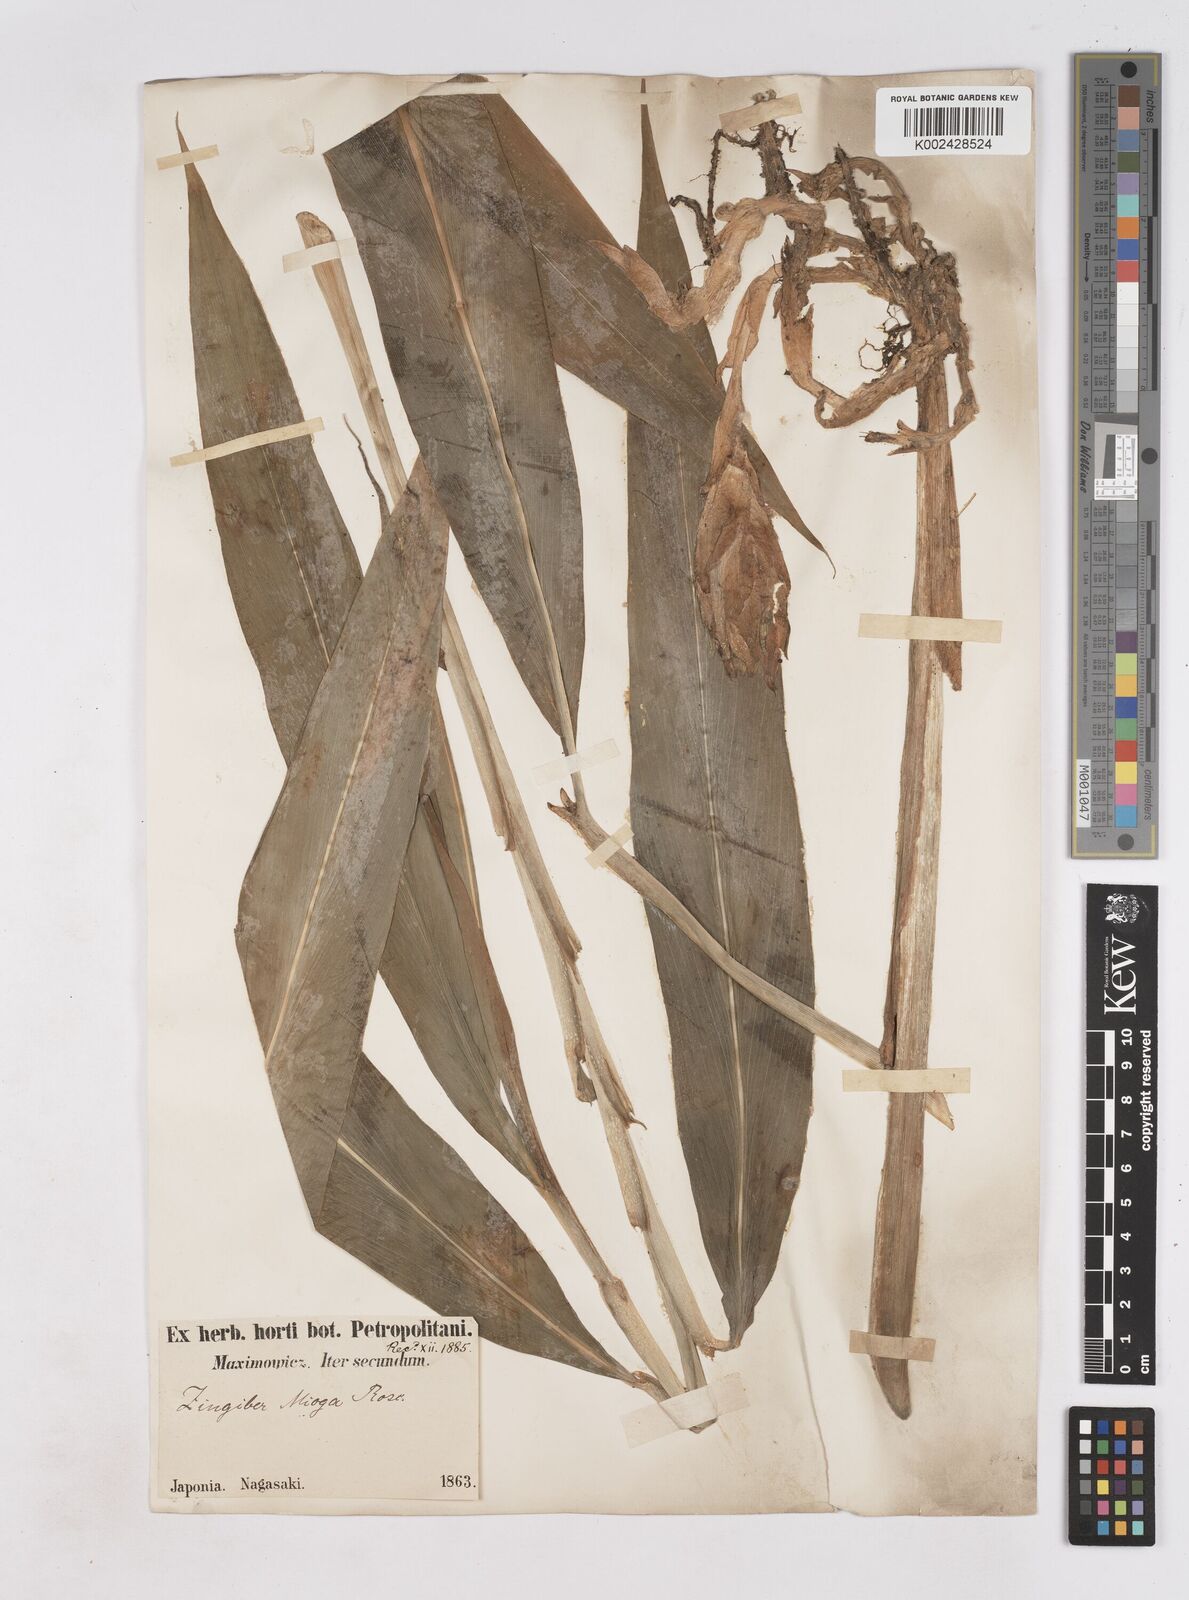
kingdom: Plantae
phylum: Tracheophyta
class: Liliopsida
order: Zingiberales
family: Zingiberaceae
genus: Zingiber
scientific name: Zingiber mioga
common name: Japanese ginger
